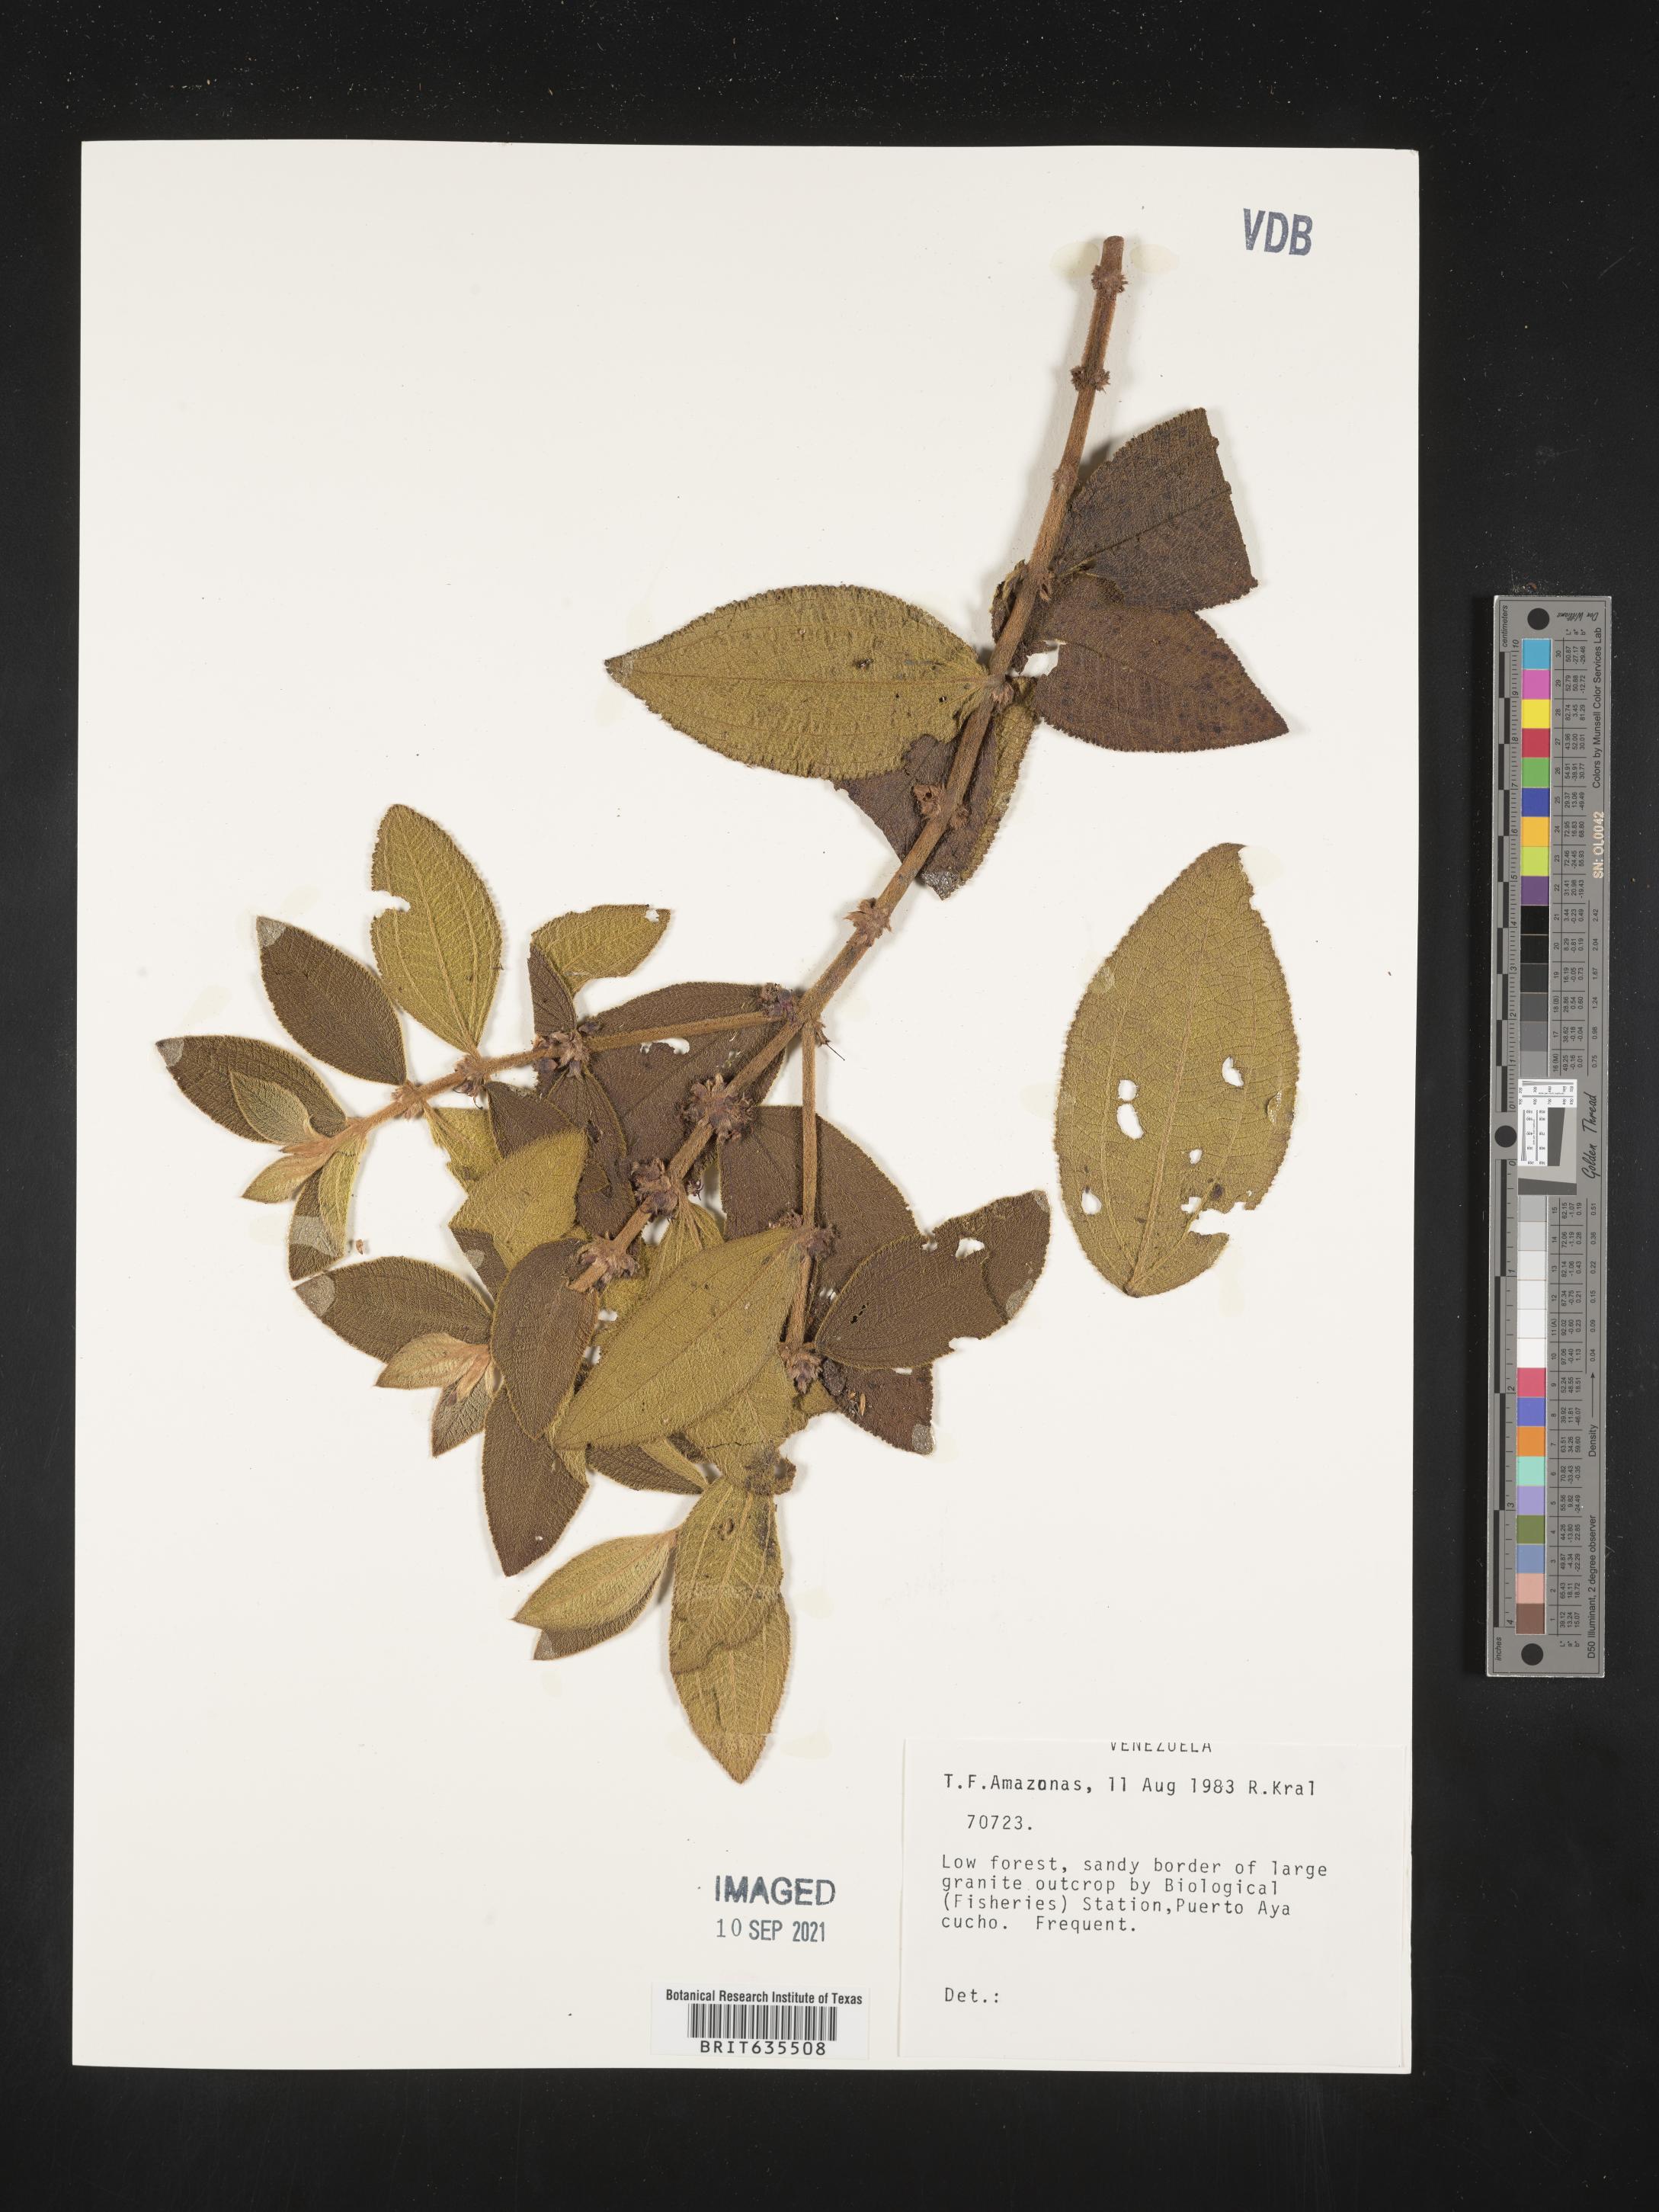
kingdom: Plantae
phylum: Tracheophyta
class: Magnoliopsida
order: Myrtales
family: Melastomataceae
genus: Miconia
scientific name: Miconia
